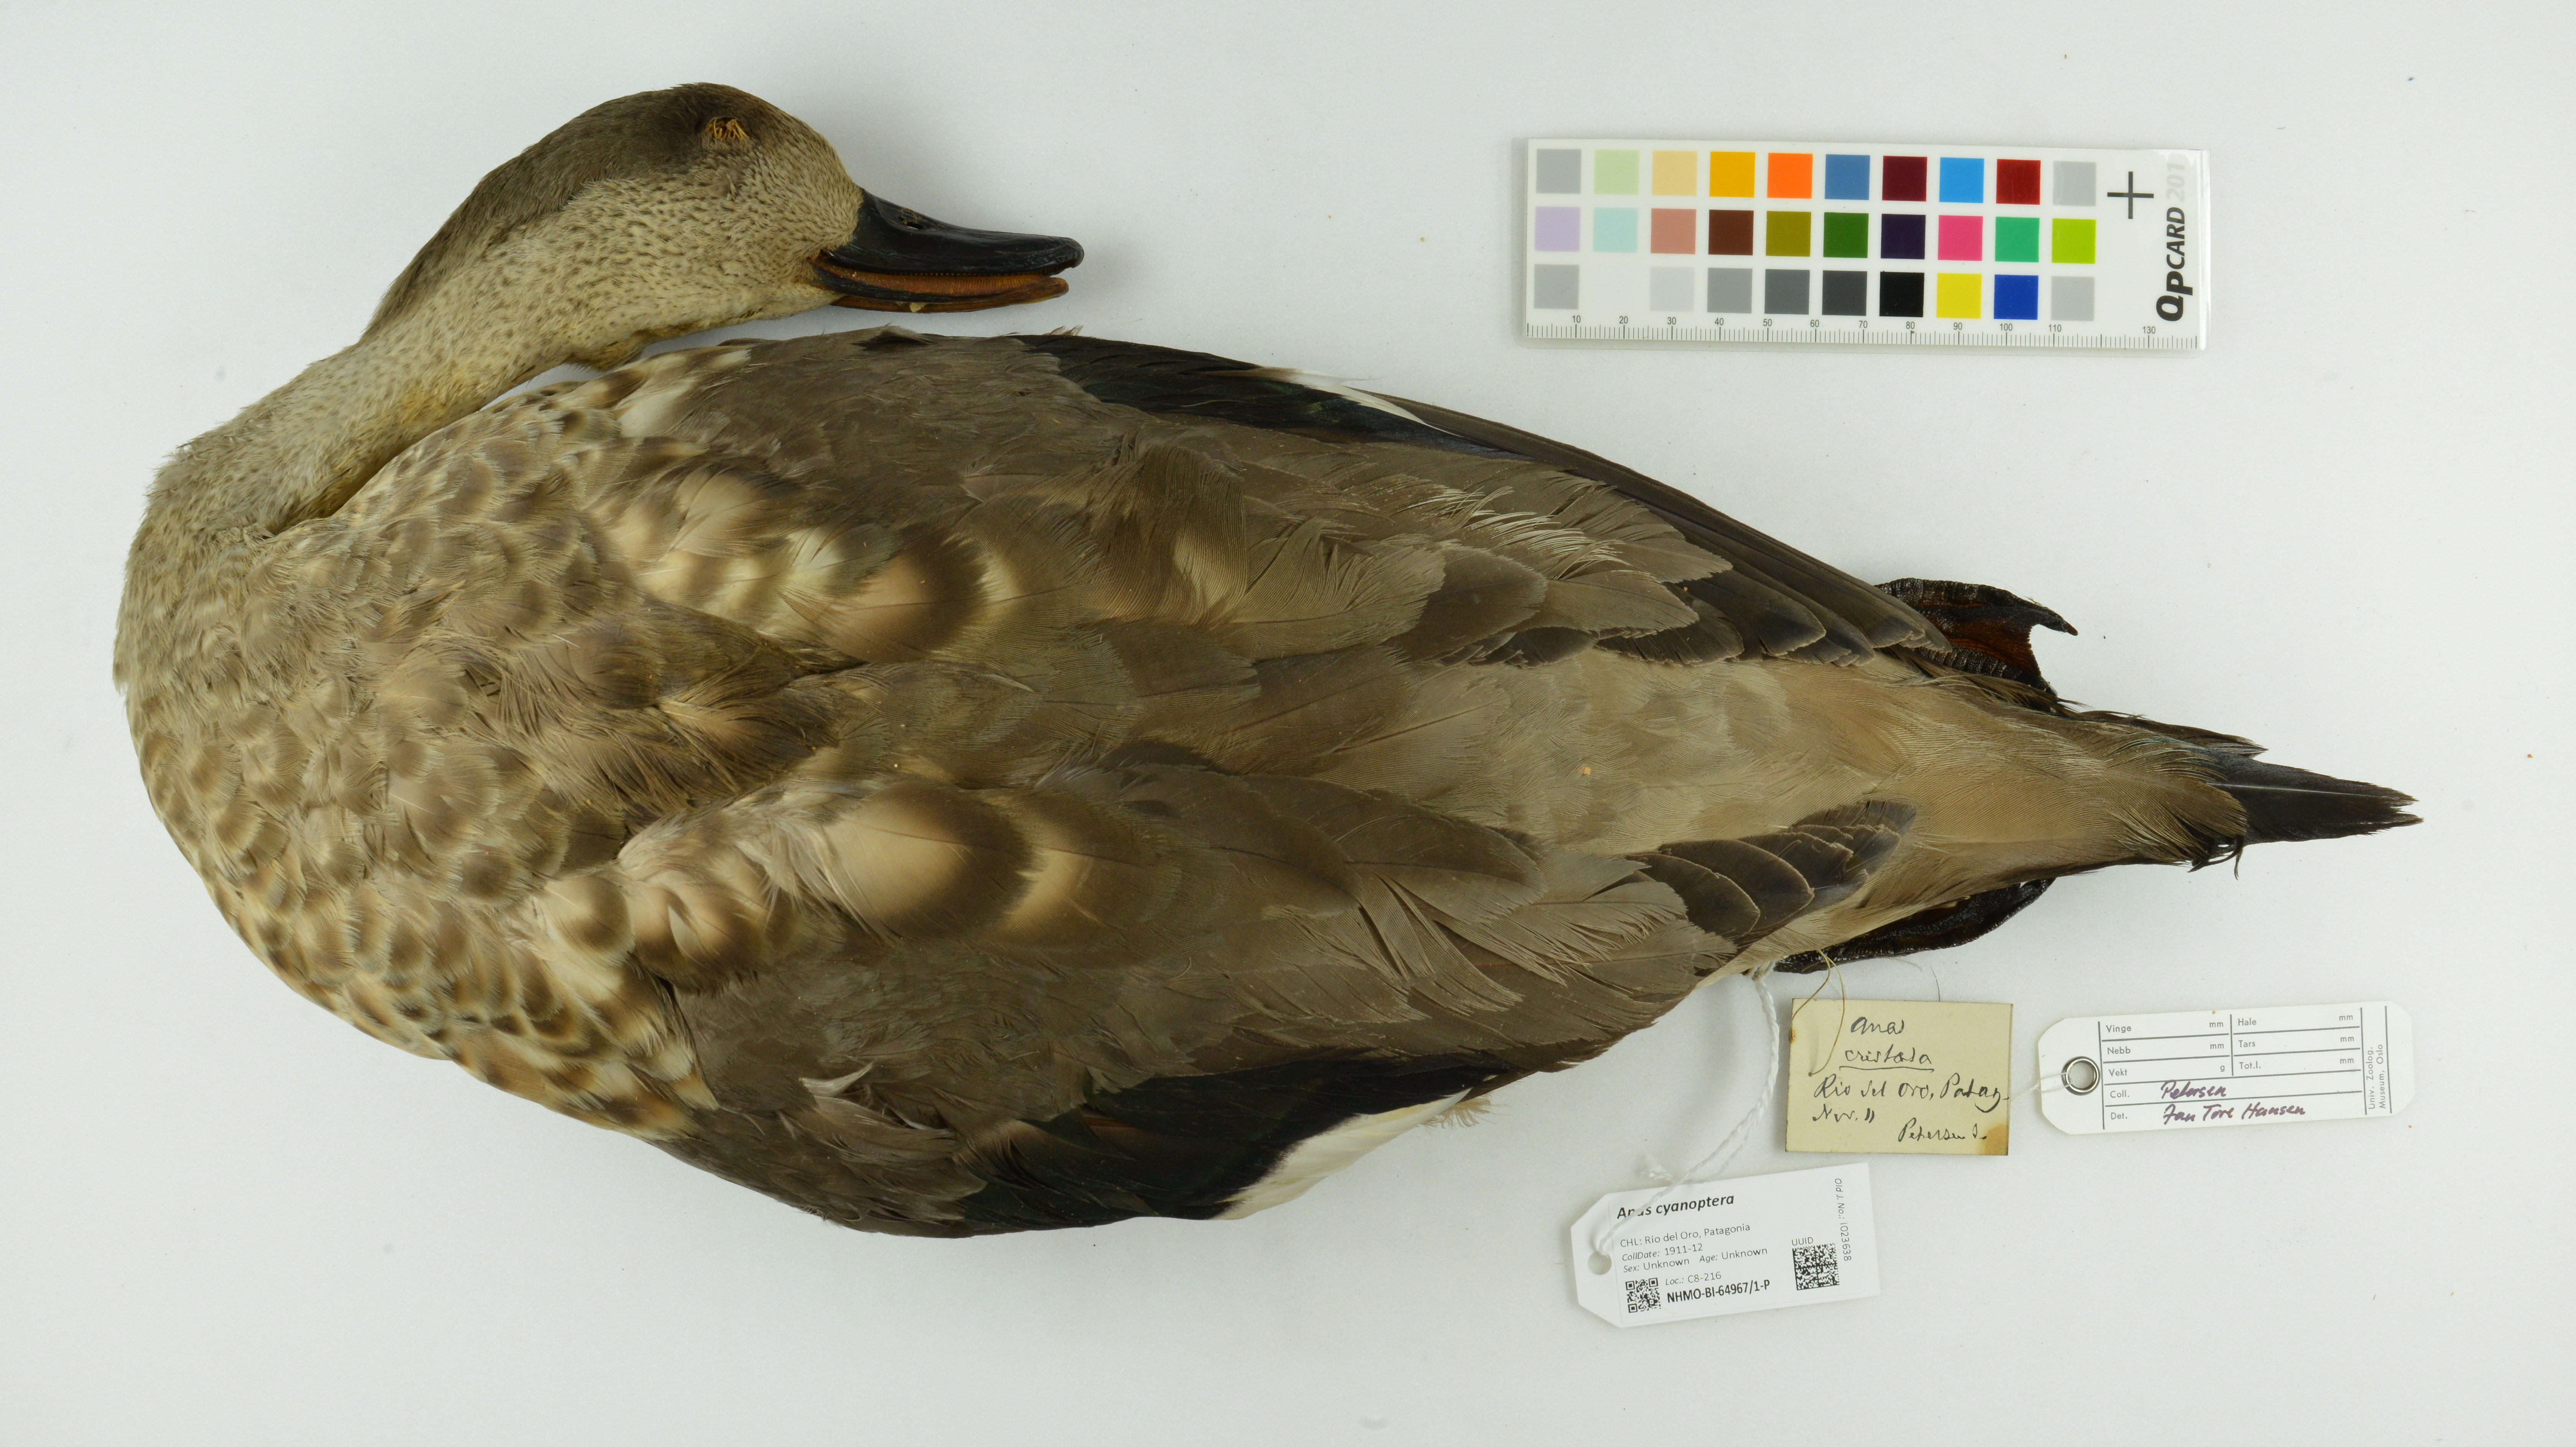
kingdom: Animalia
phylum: Chordata
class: Aves
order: Anseriformes
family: Anatidae
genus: Spatula
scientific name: Spatula cyanoptera
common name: Cinnamon teal
